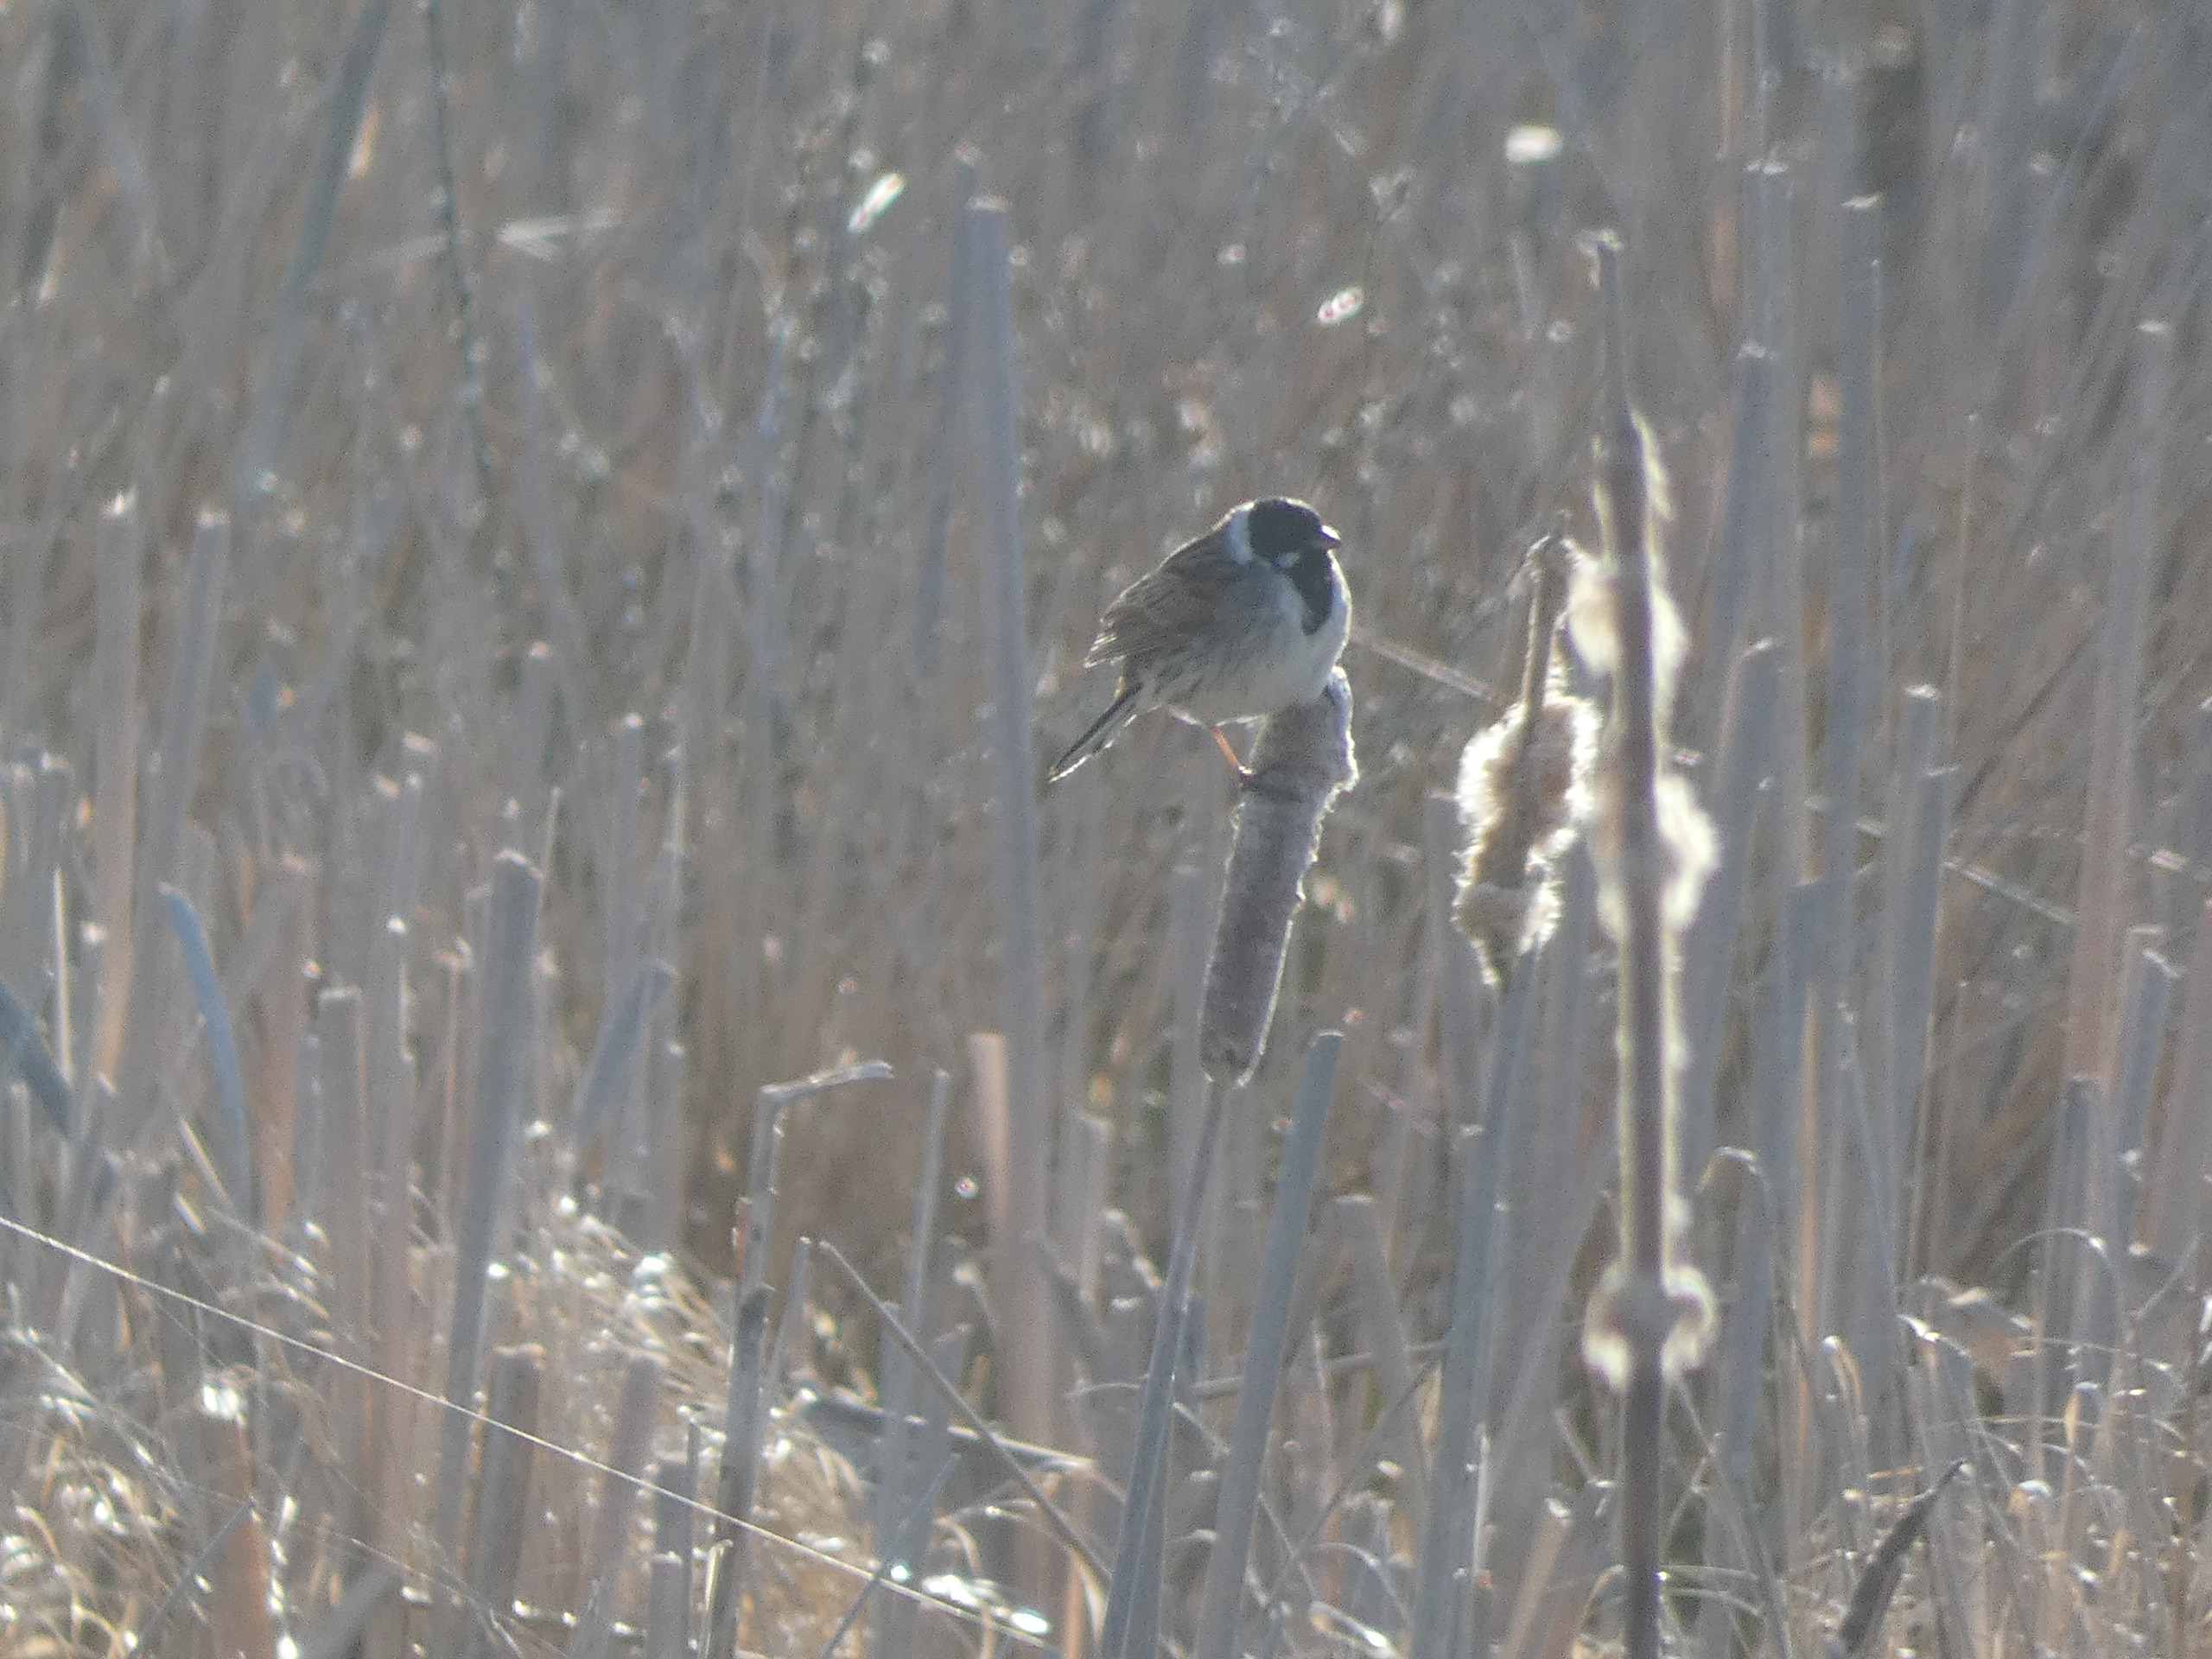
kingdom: Animalia
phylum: Chordata
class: Aves
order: Passeriformes
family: Emberizidae
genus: Emberiza
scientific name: Emberiza schoeniclus
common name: Rørspurv
